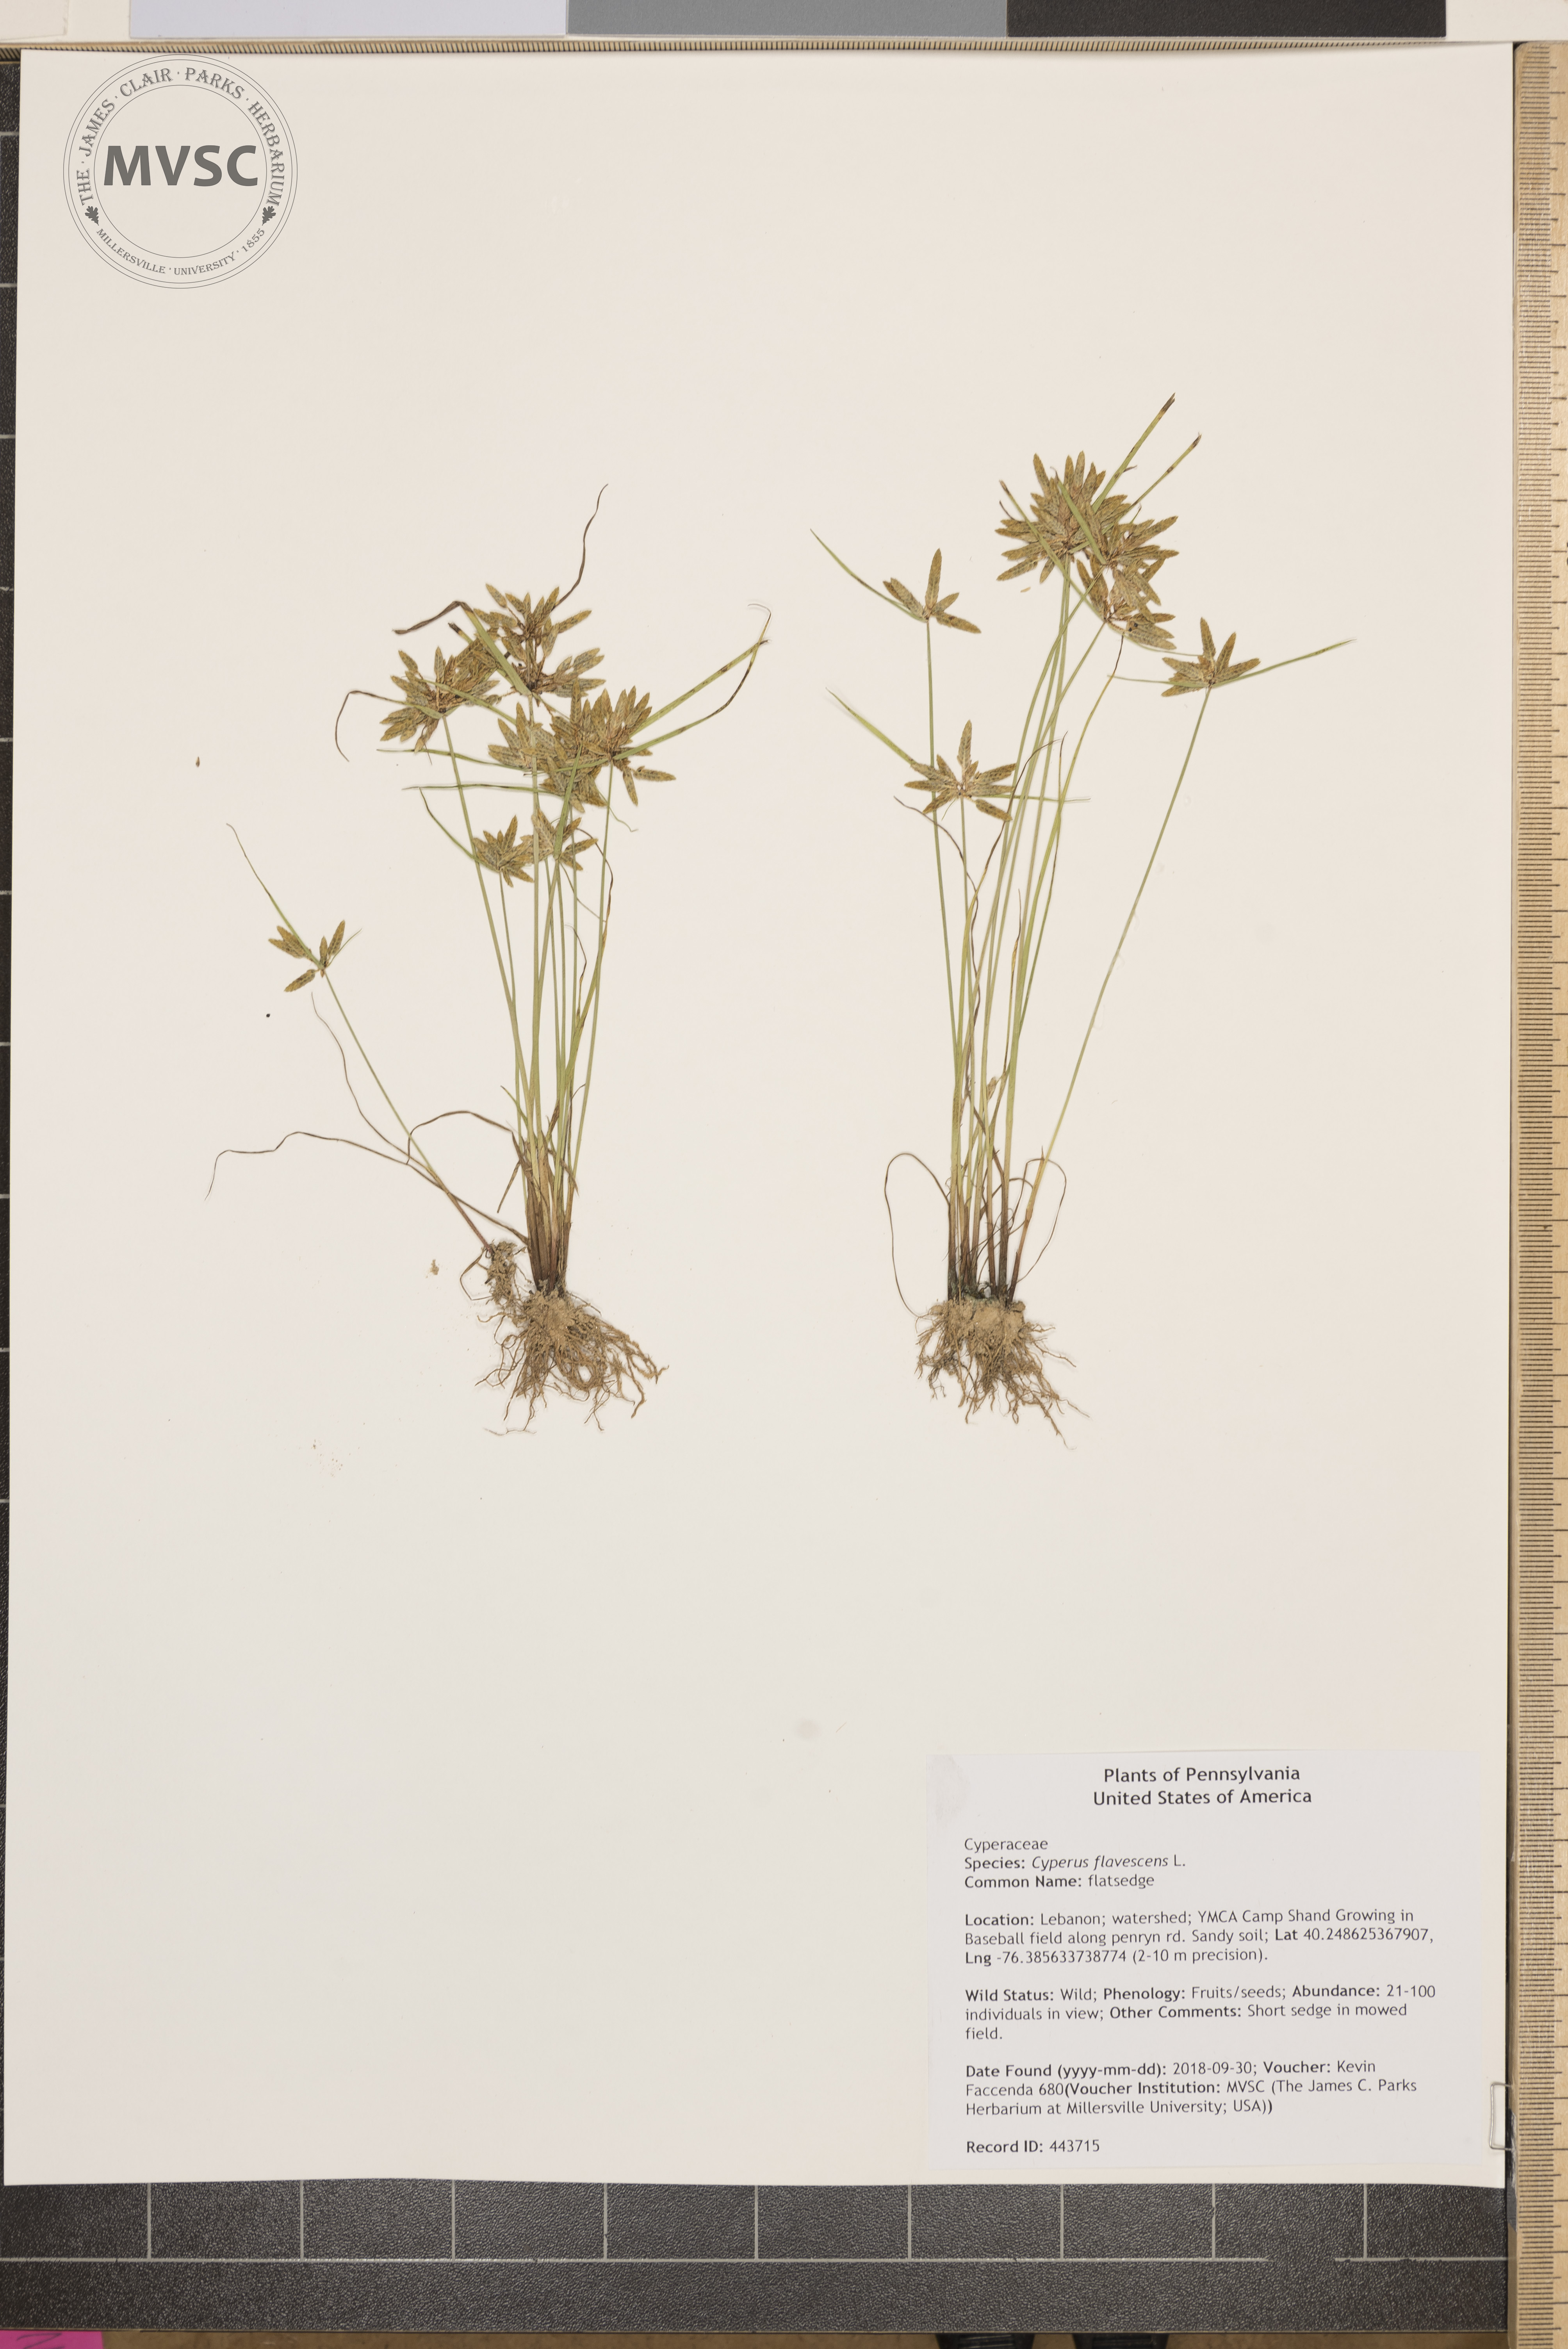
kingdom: Plantae
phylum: Tracheophyta
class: Liliopsida
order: Poales
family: Cyperaceae
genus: Cyperus
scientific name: Cyperus flavescens
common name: flatsedge
